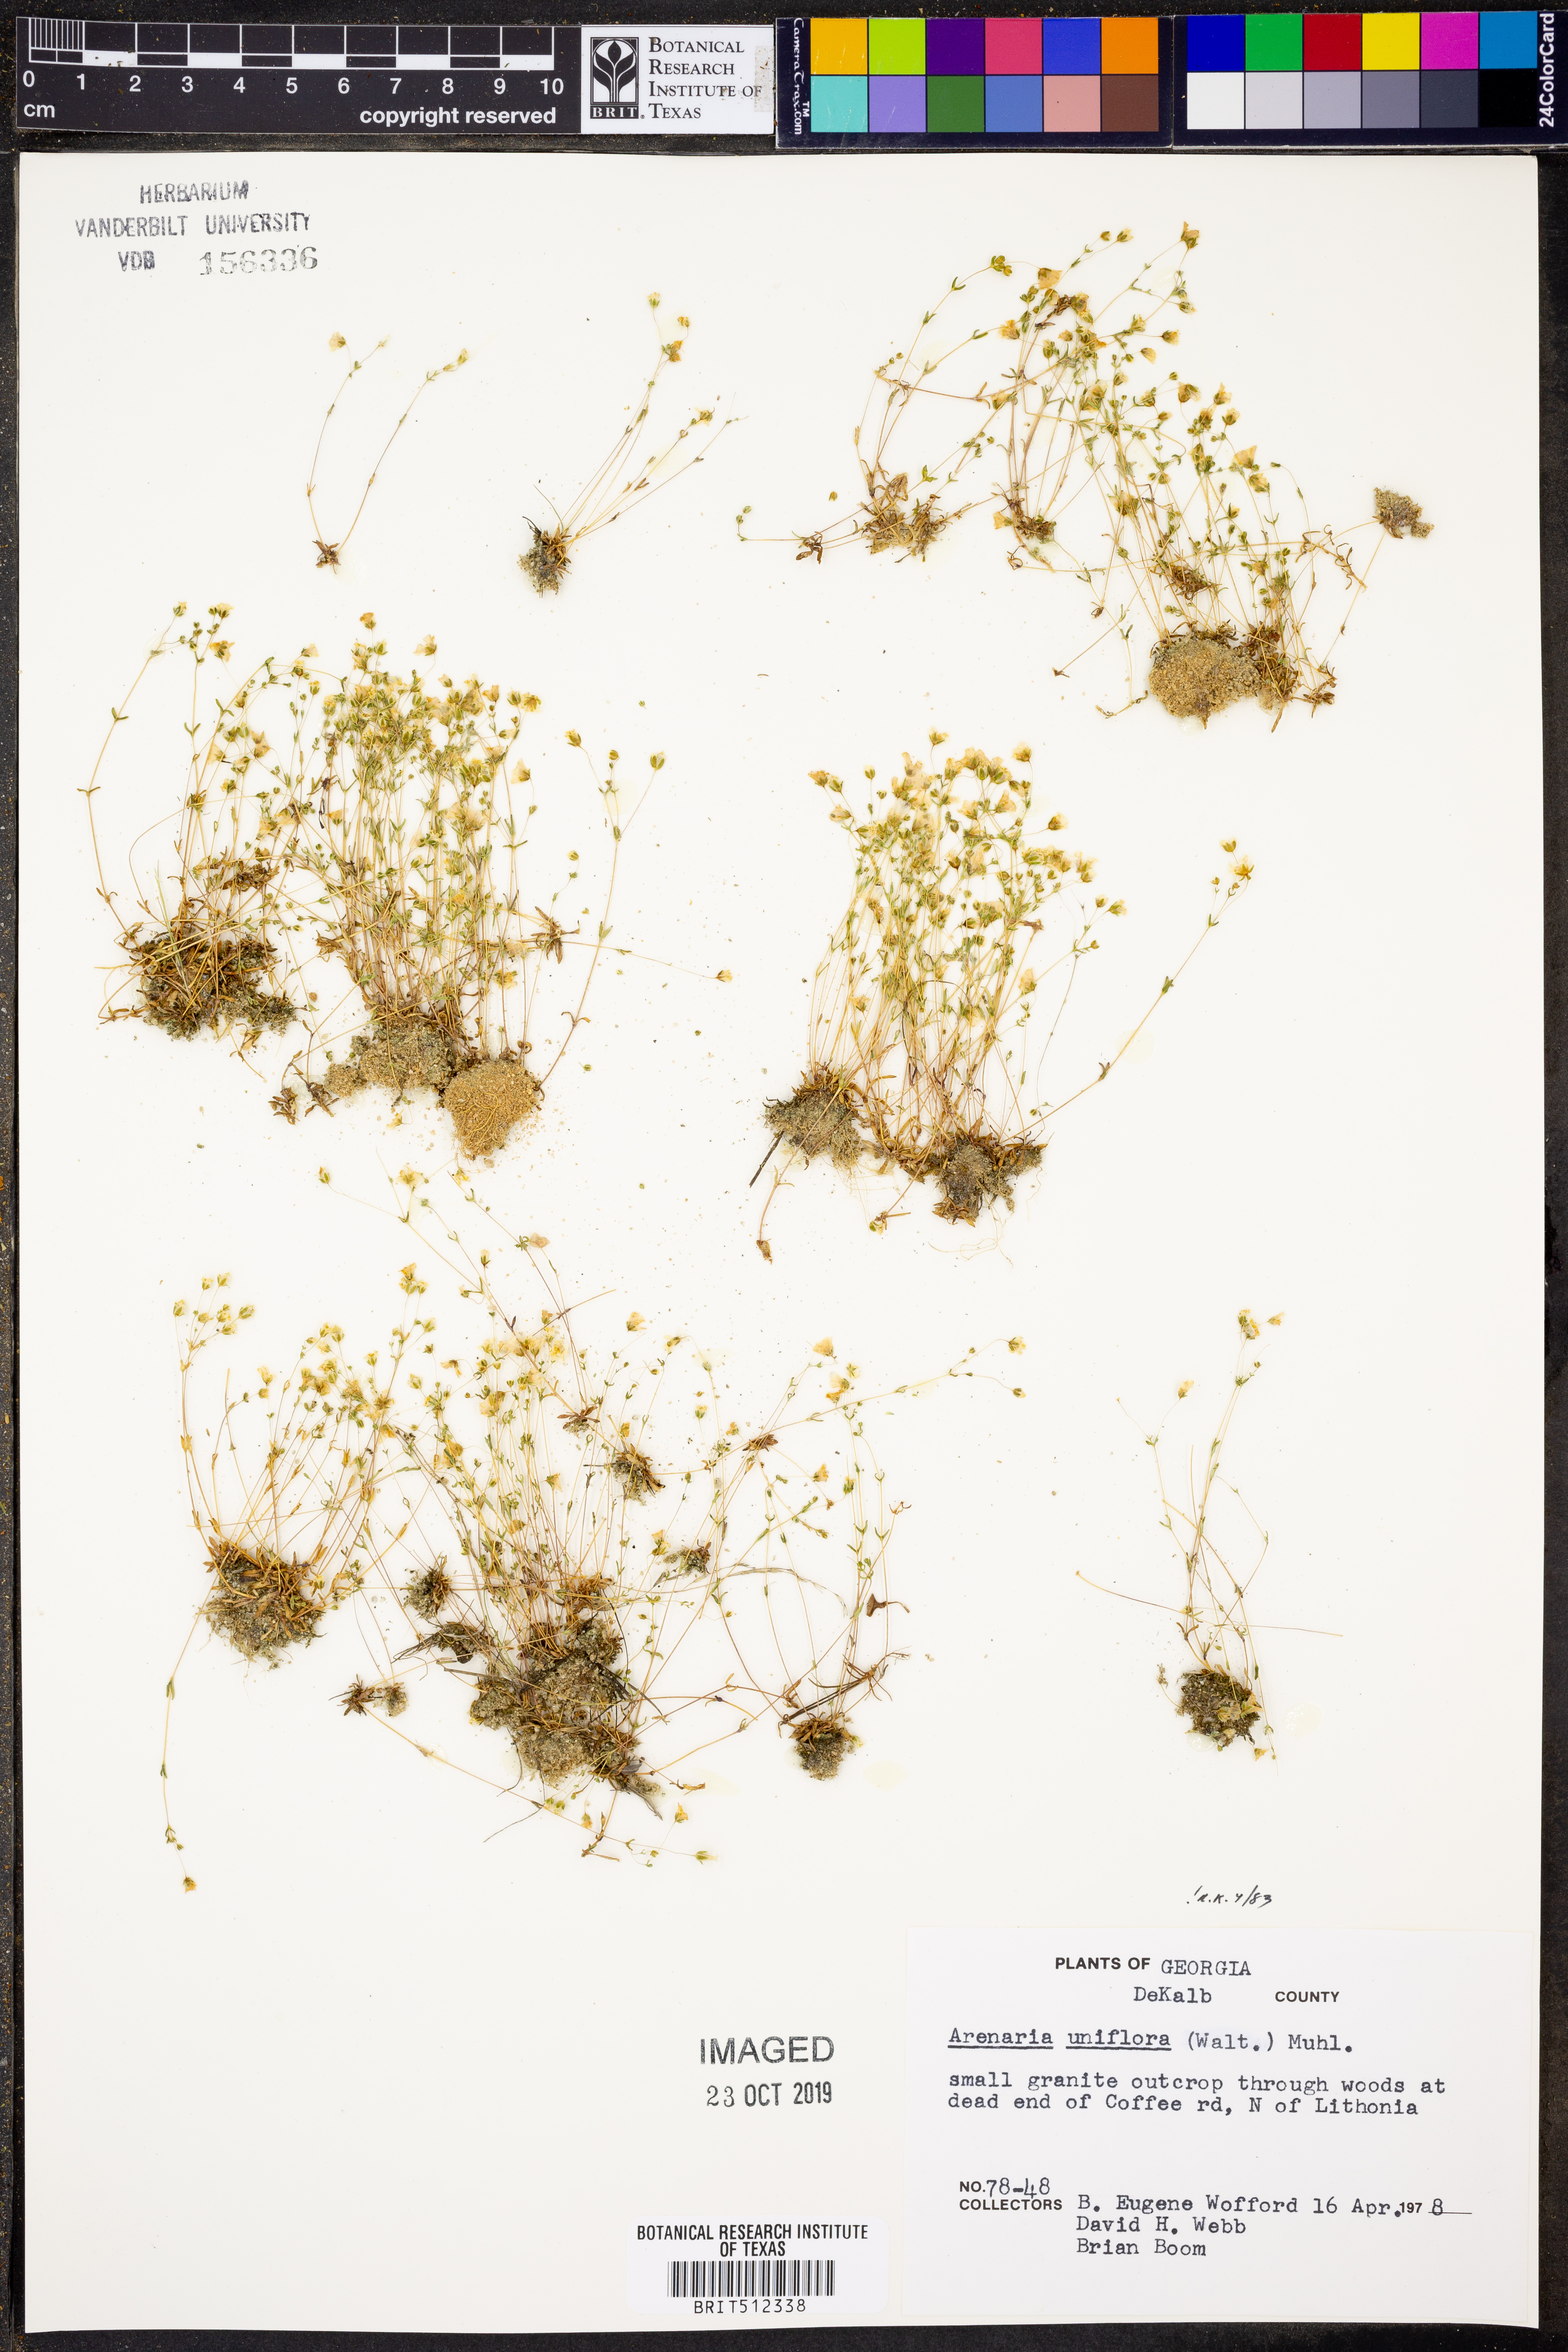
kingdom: Plantae
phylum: Tracheophyta
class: Magnoliopsida
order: Caryophyllales
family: Caryophyllaceae
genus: Geocarpon
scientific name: Geocarpon uniflorum
